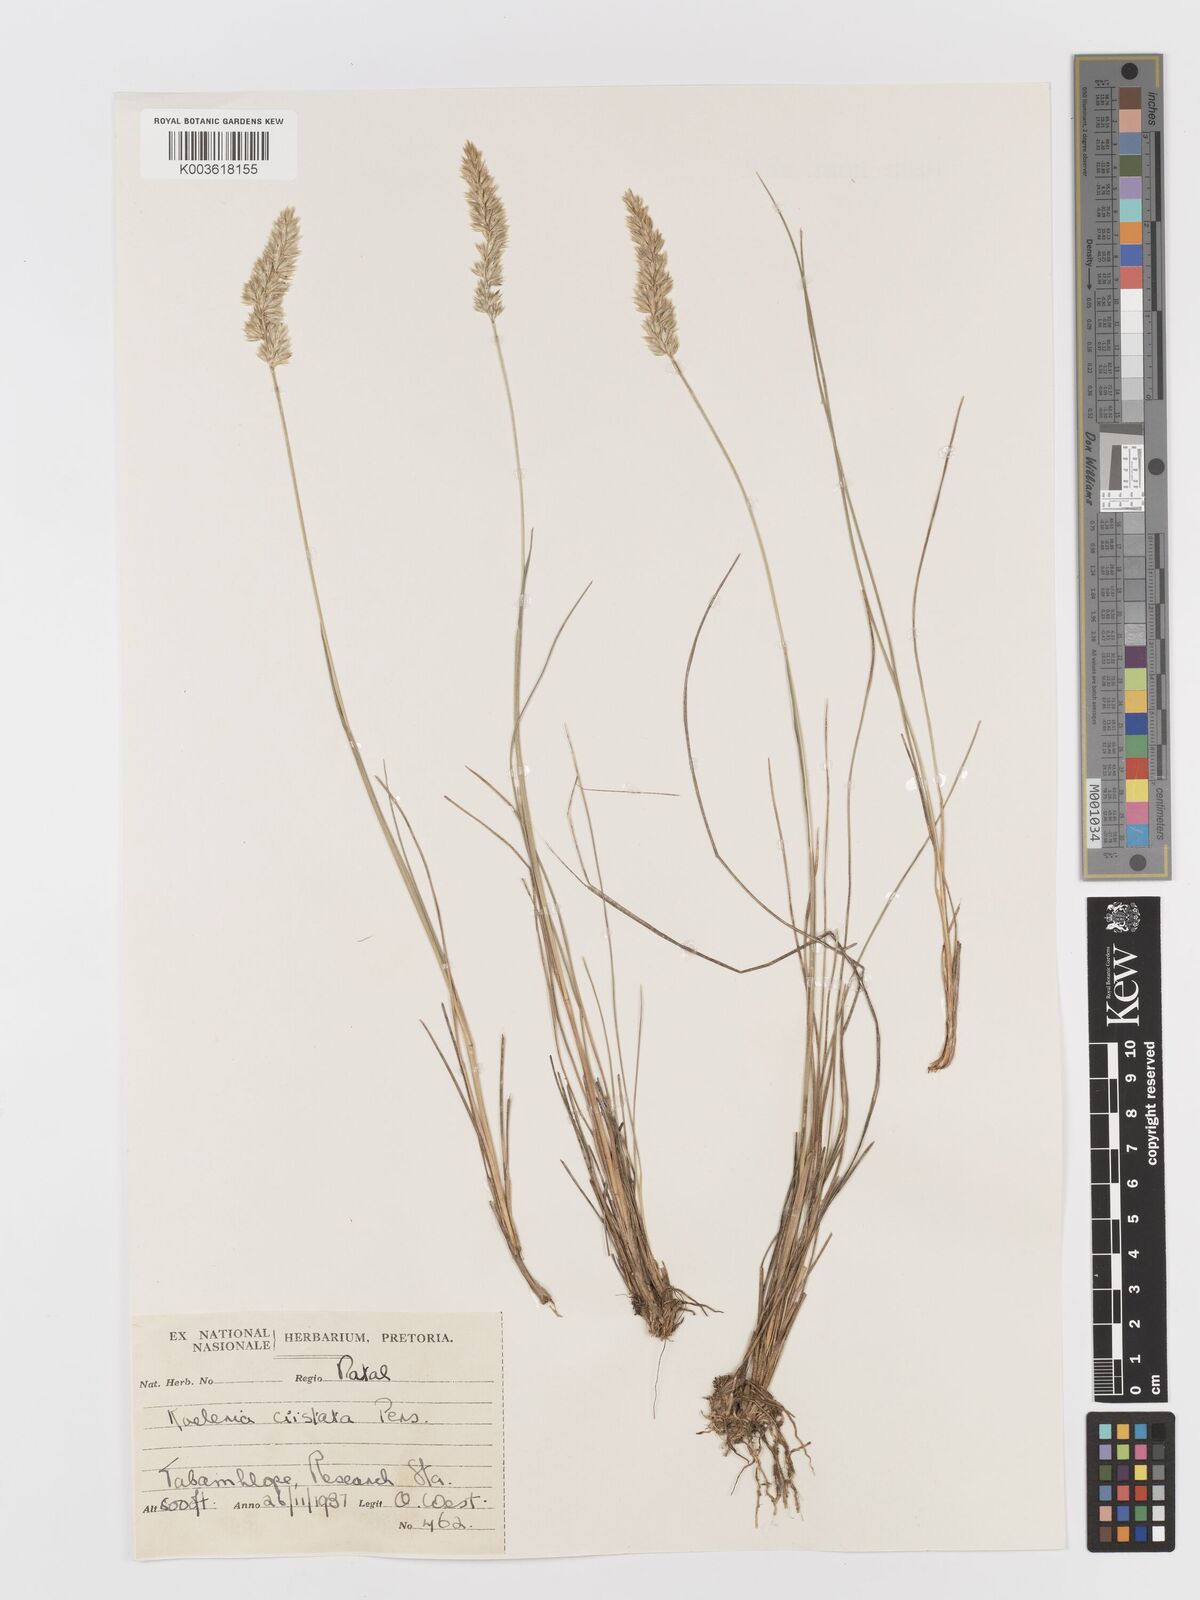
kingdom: Plantae
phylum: Tracheophyta
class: Liliopsida
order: Poales
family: Poaceae
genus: Koeleria
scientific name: Koeleria capensis
